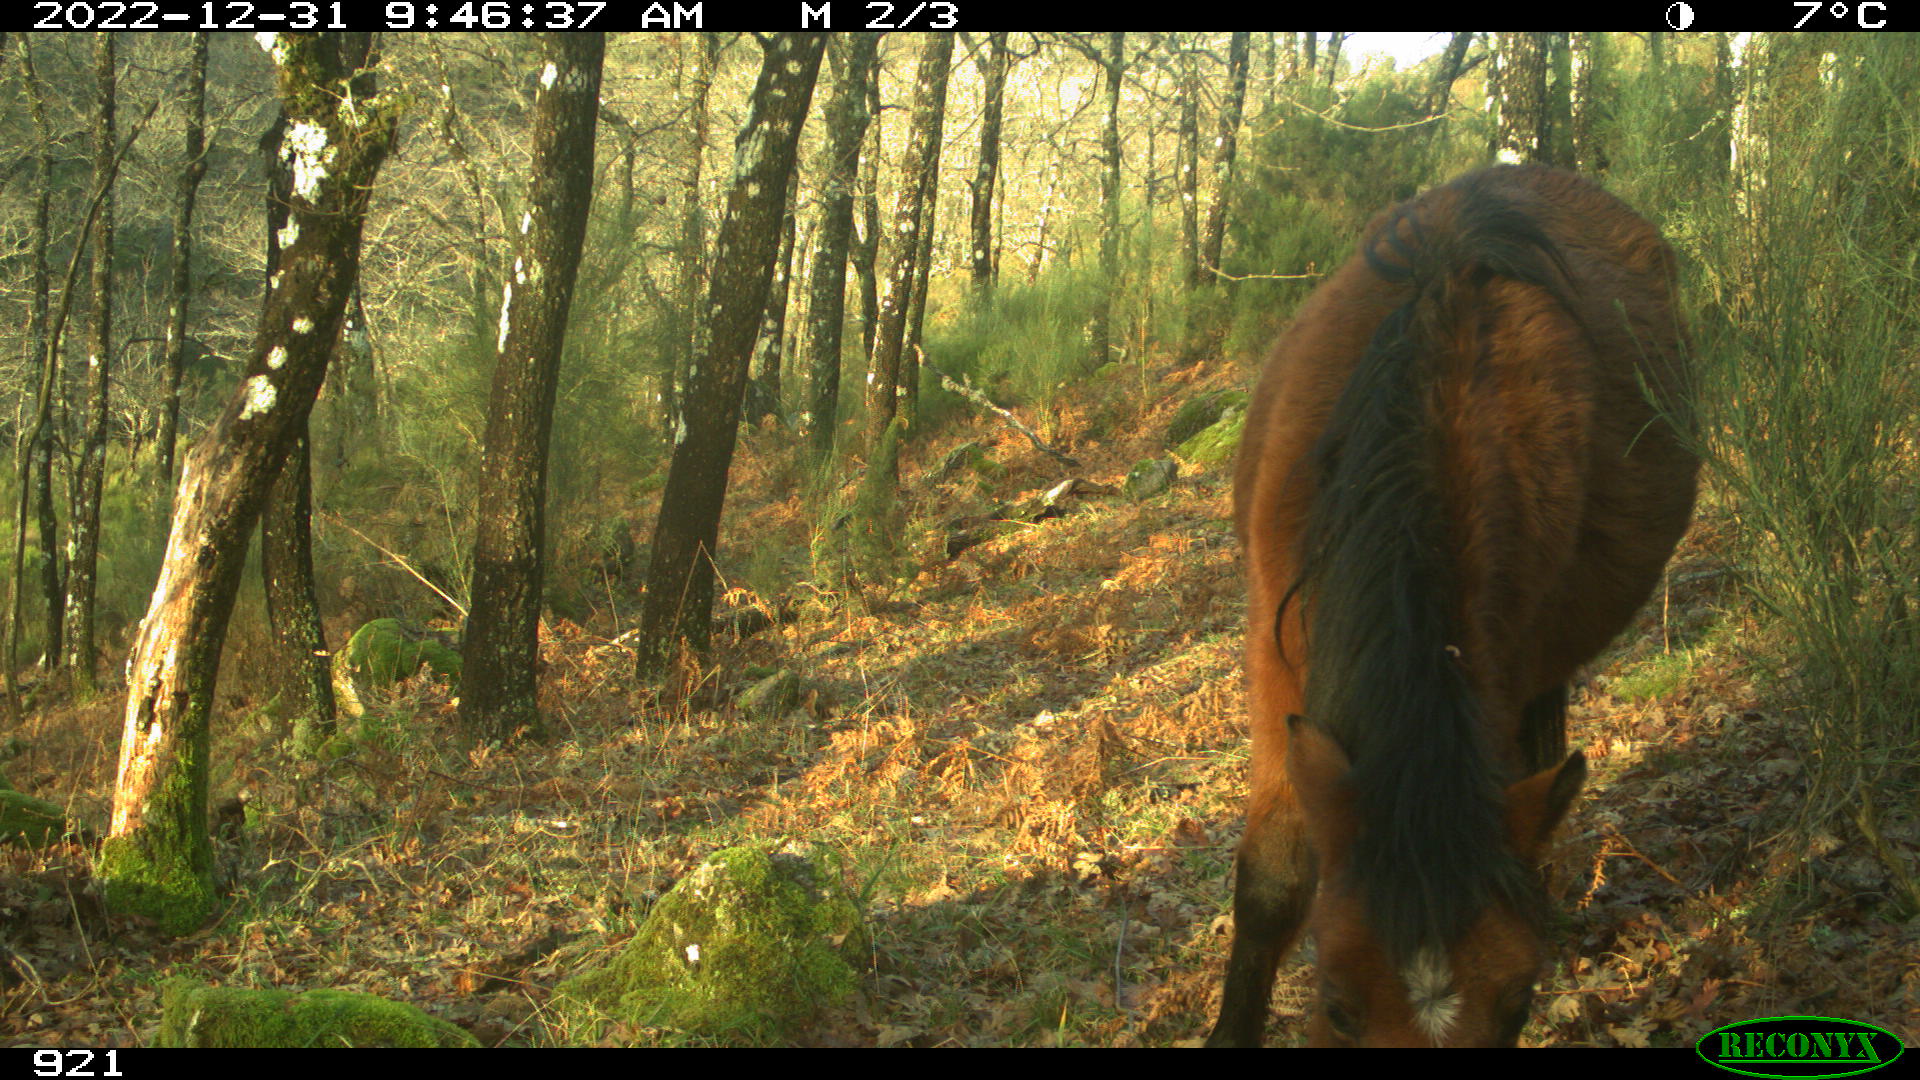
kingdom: Animalia
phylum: Chordata
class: Mammalia
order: Perissodactyla
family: Equidae
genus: Equus
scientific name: Equus caballus
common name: Horse
